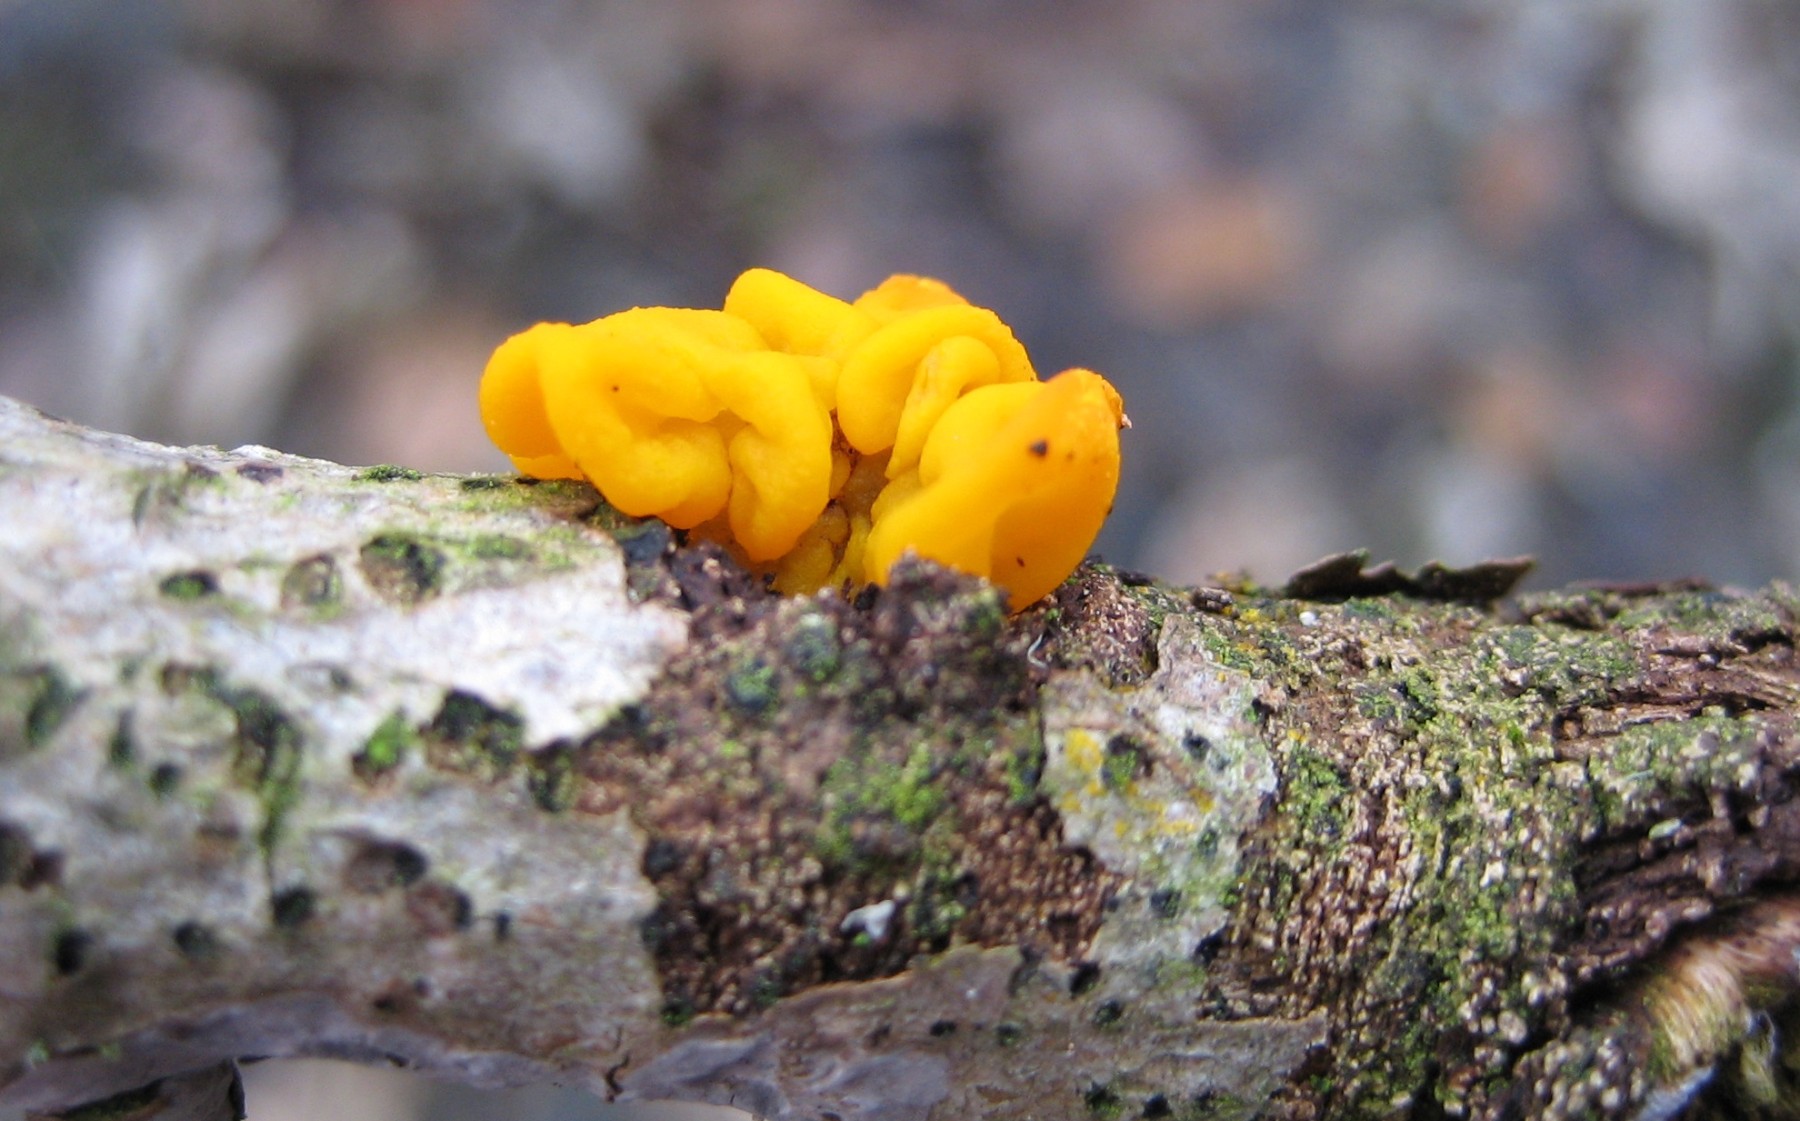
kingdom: Fungi
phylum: Basidiomycota
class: Tremellomycetes
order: Tremellales
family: Tremellaceae
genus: Tremella
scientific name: Tremella mesenterica
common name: gul bævresvamp
